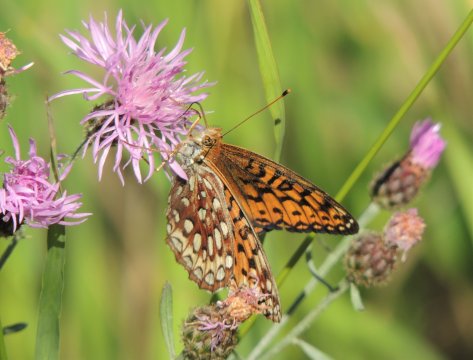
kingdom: Animalia
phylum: Arthropoda
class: Insecta
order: Lepidoptera
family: Nymphalidae
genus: Speyeria
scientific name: Speyeria atlantis
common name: Northwestern Fritillary
